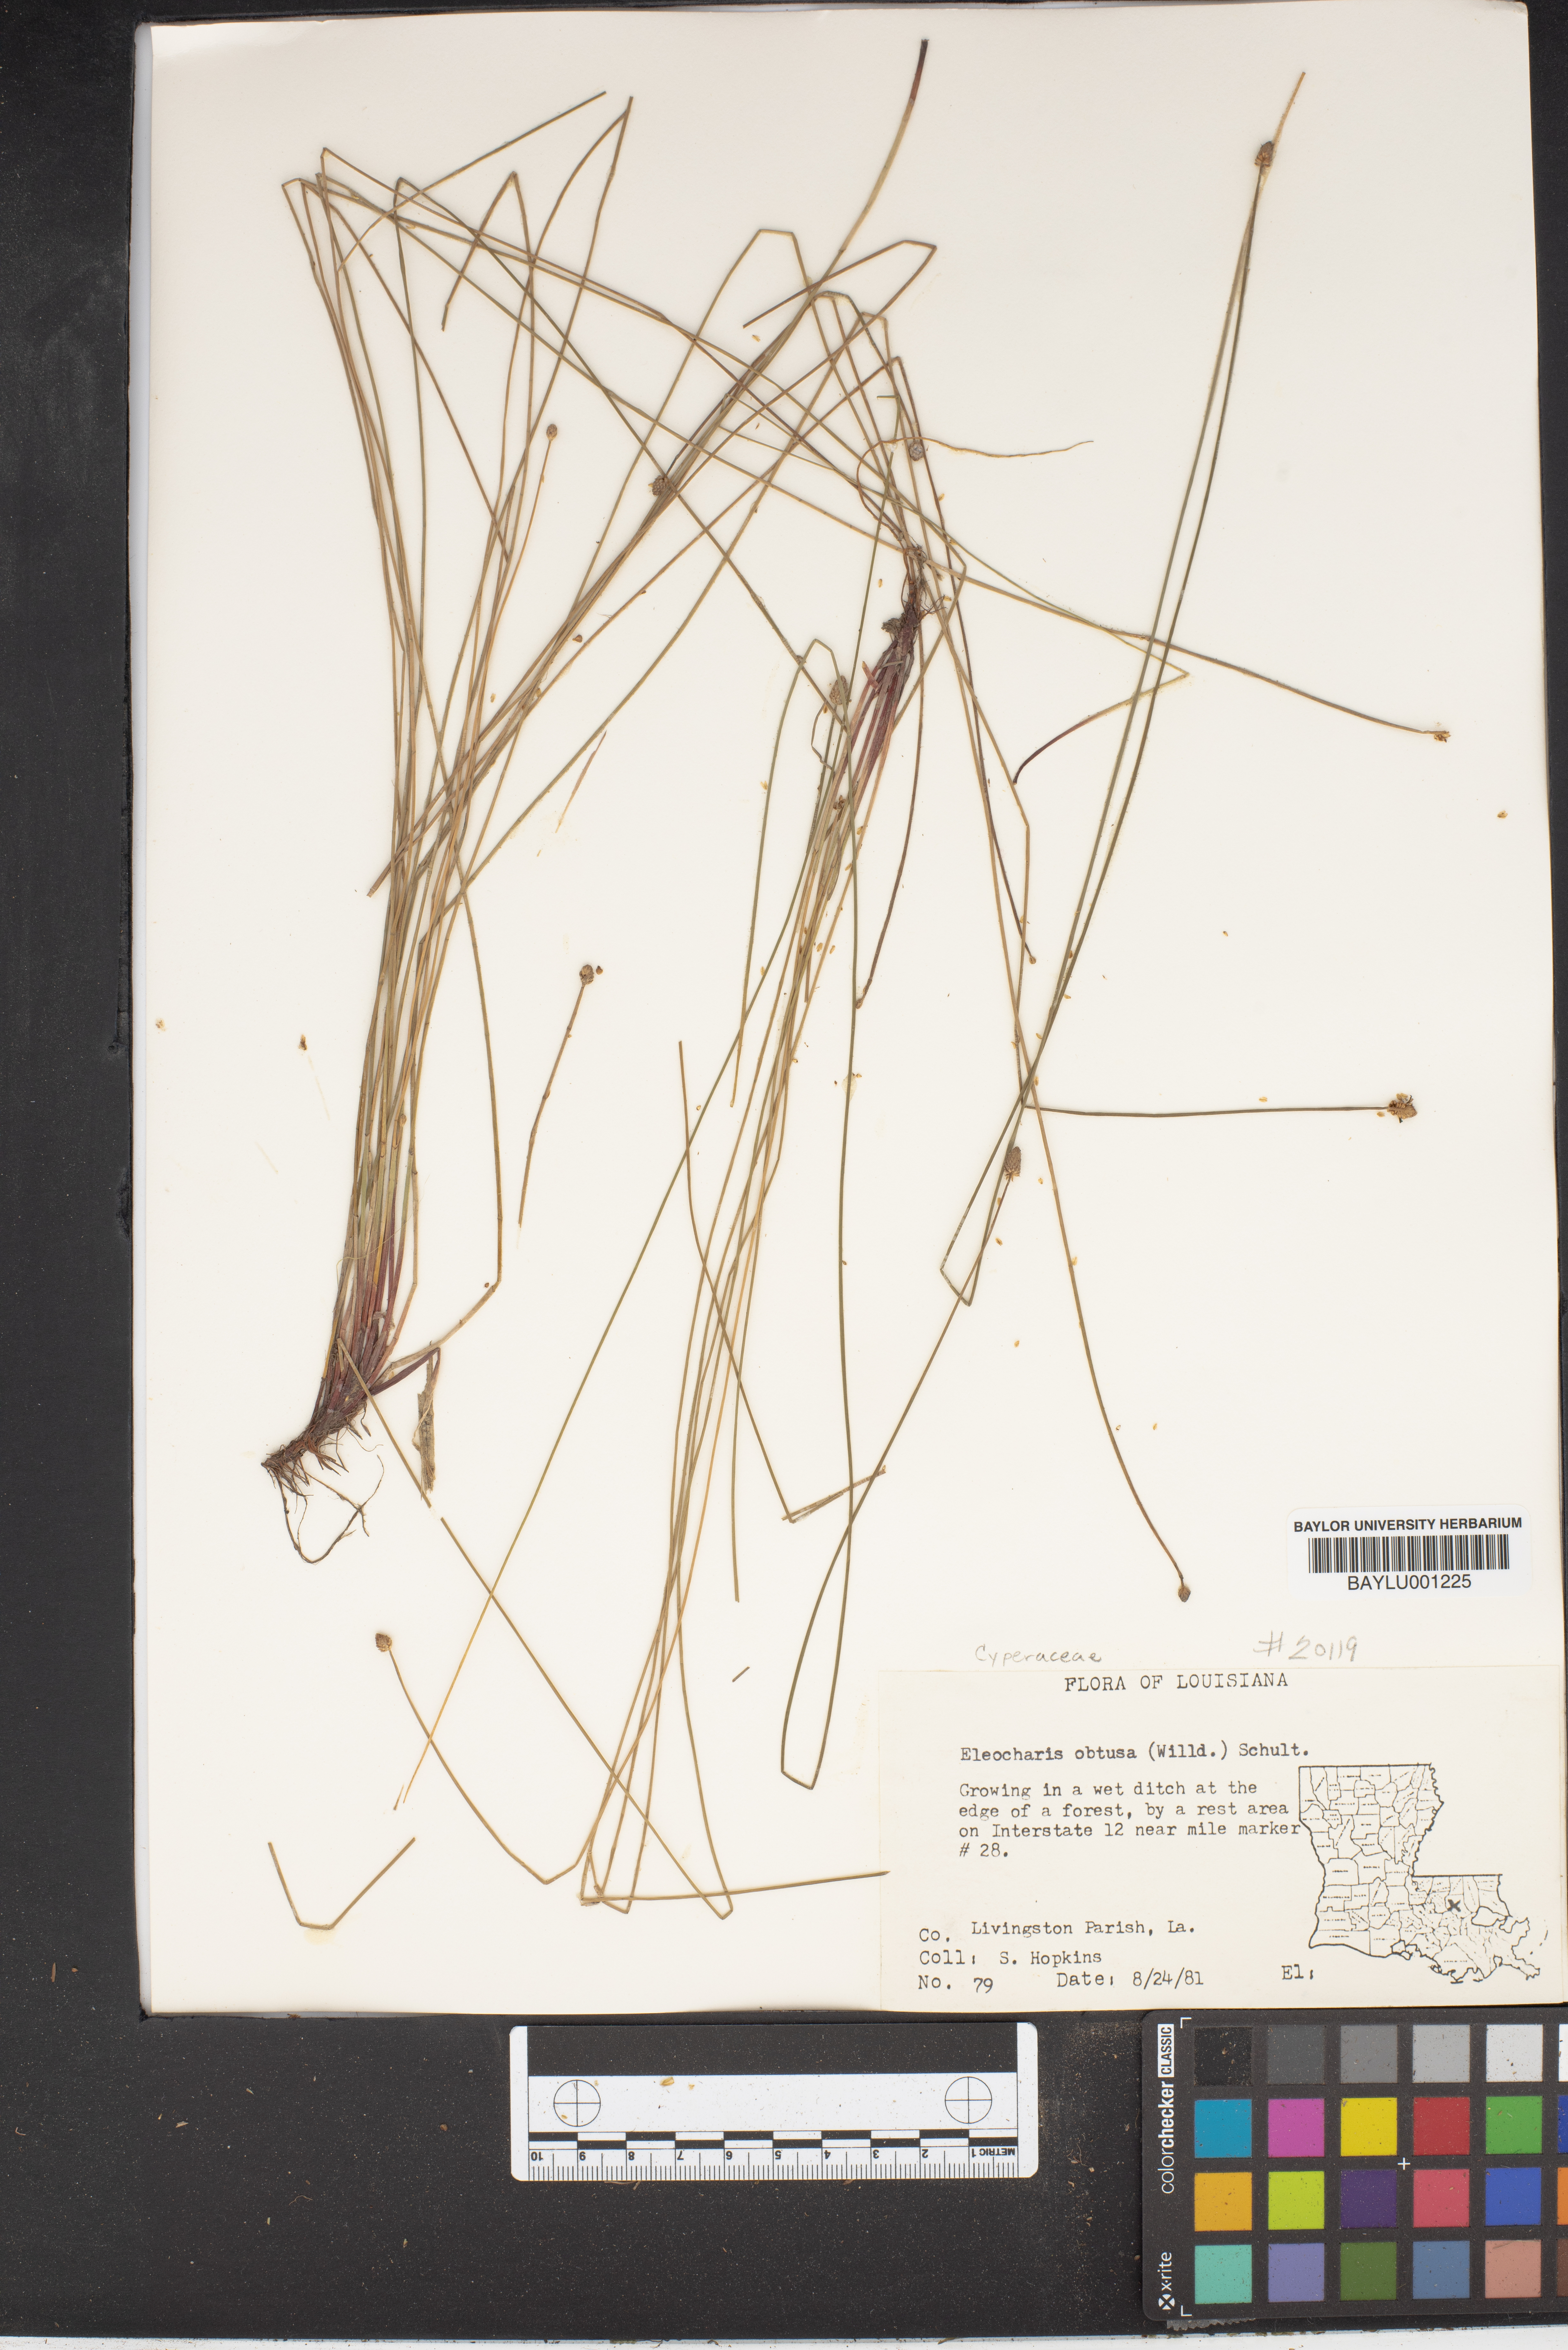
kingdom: Plantae
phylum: Tracheophyta
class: Liliopsida
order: Poales
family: Cyperaceae
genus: Eleocharis
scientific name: Eleocharis obtusa
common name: Blunt spikerush
